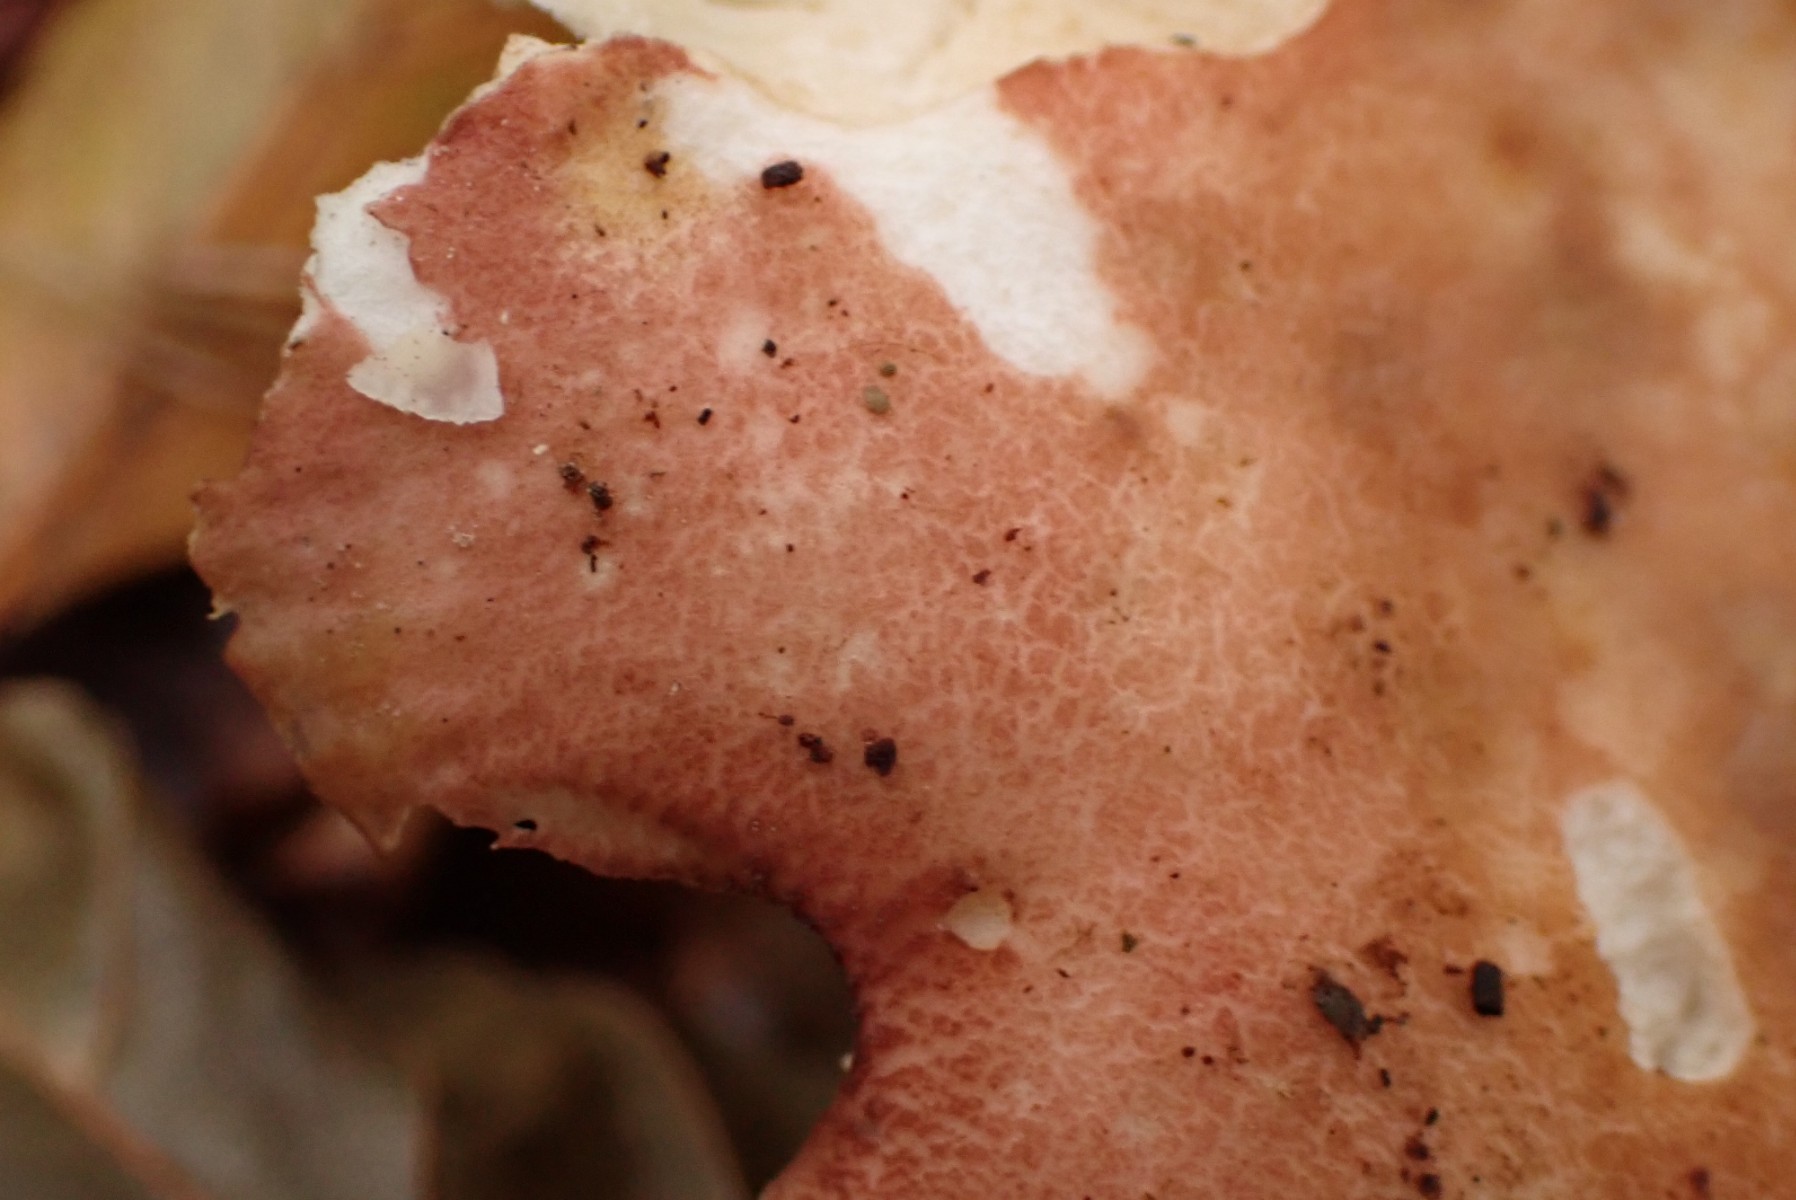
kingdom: Fungi
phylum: Basidiomycota
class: Agaricomycetes
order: Russulales
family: Russulaceae
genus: Russula
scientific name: Russula curtipes
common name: kortstokket skørhat
